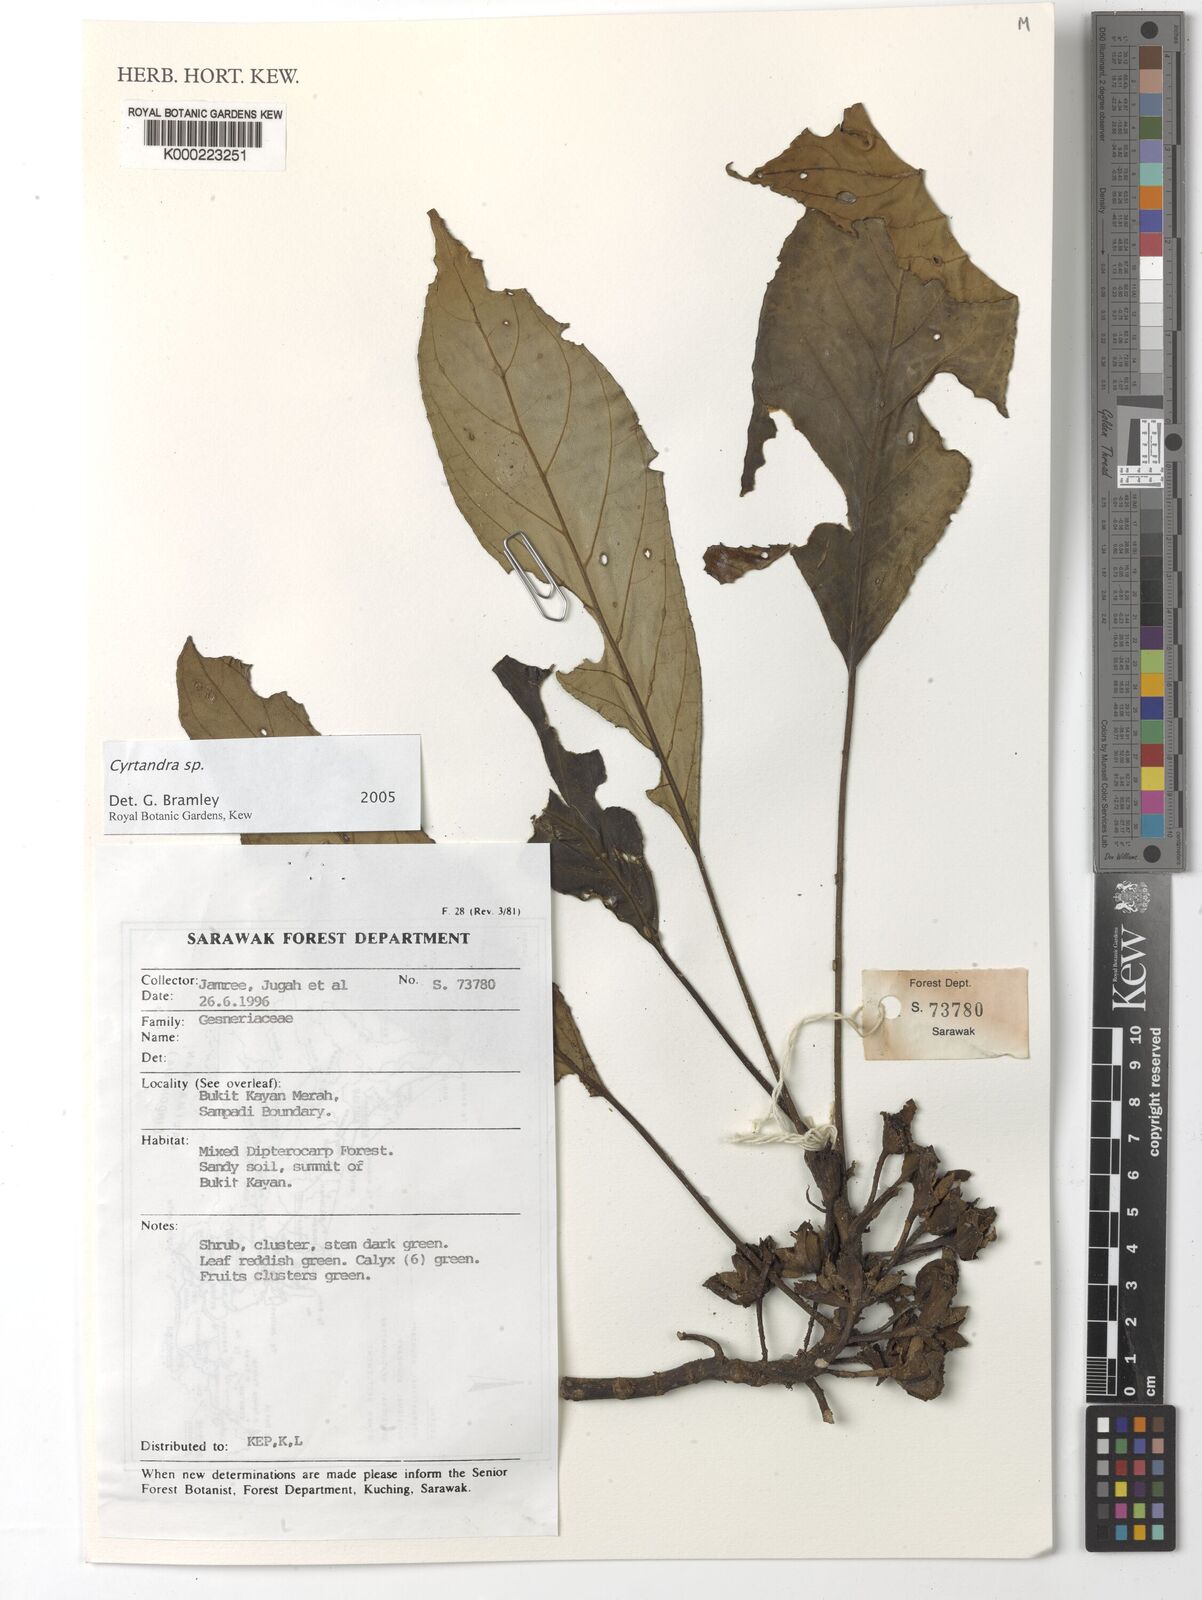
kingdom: Plantae
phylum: Tracheophyta
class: Magnoliopsida
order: Lamiales
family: Gesneriaceae
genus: Cyrtandra
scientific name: Cyrtandra
